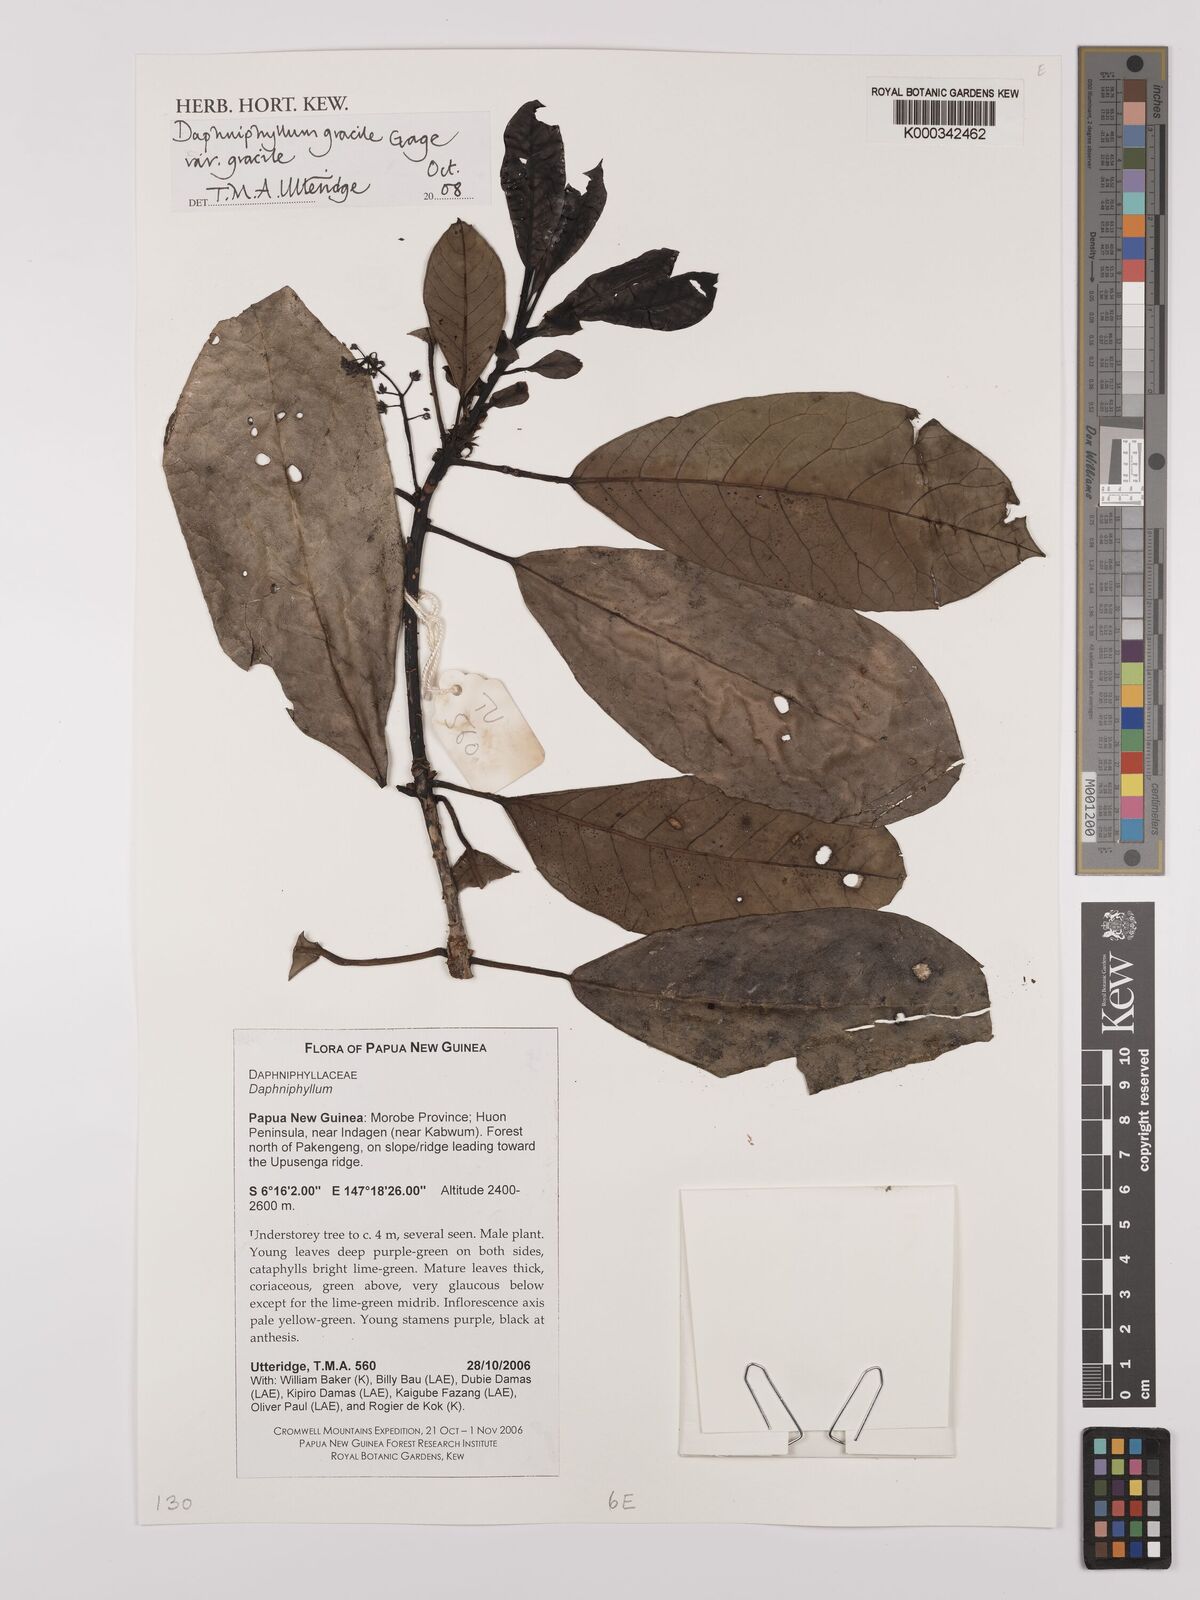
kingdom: Plantae
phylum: Tracheophyta
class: Magnoliopsida
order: Saxifragales
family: Daphniphyllaceae
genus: Daphniphyllum
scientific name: Daphniphyllum gracile
